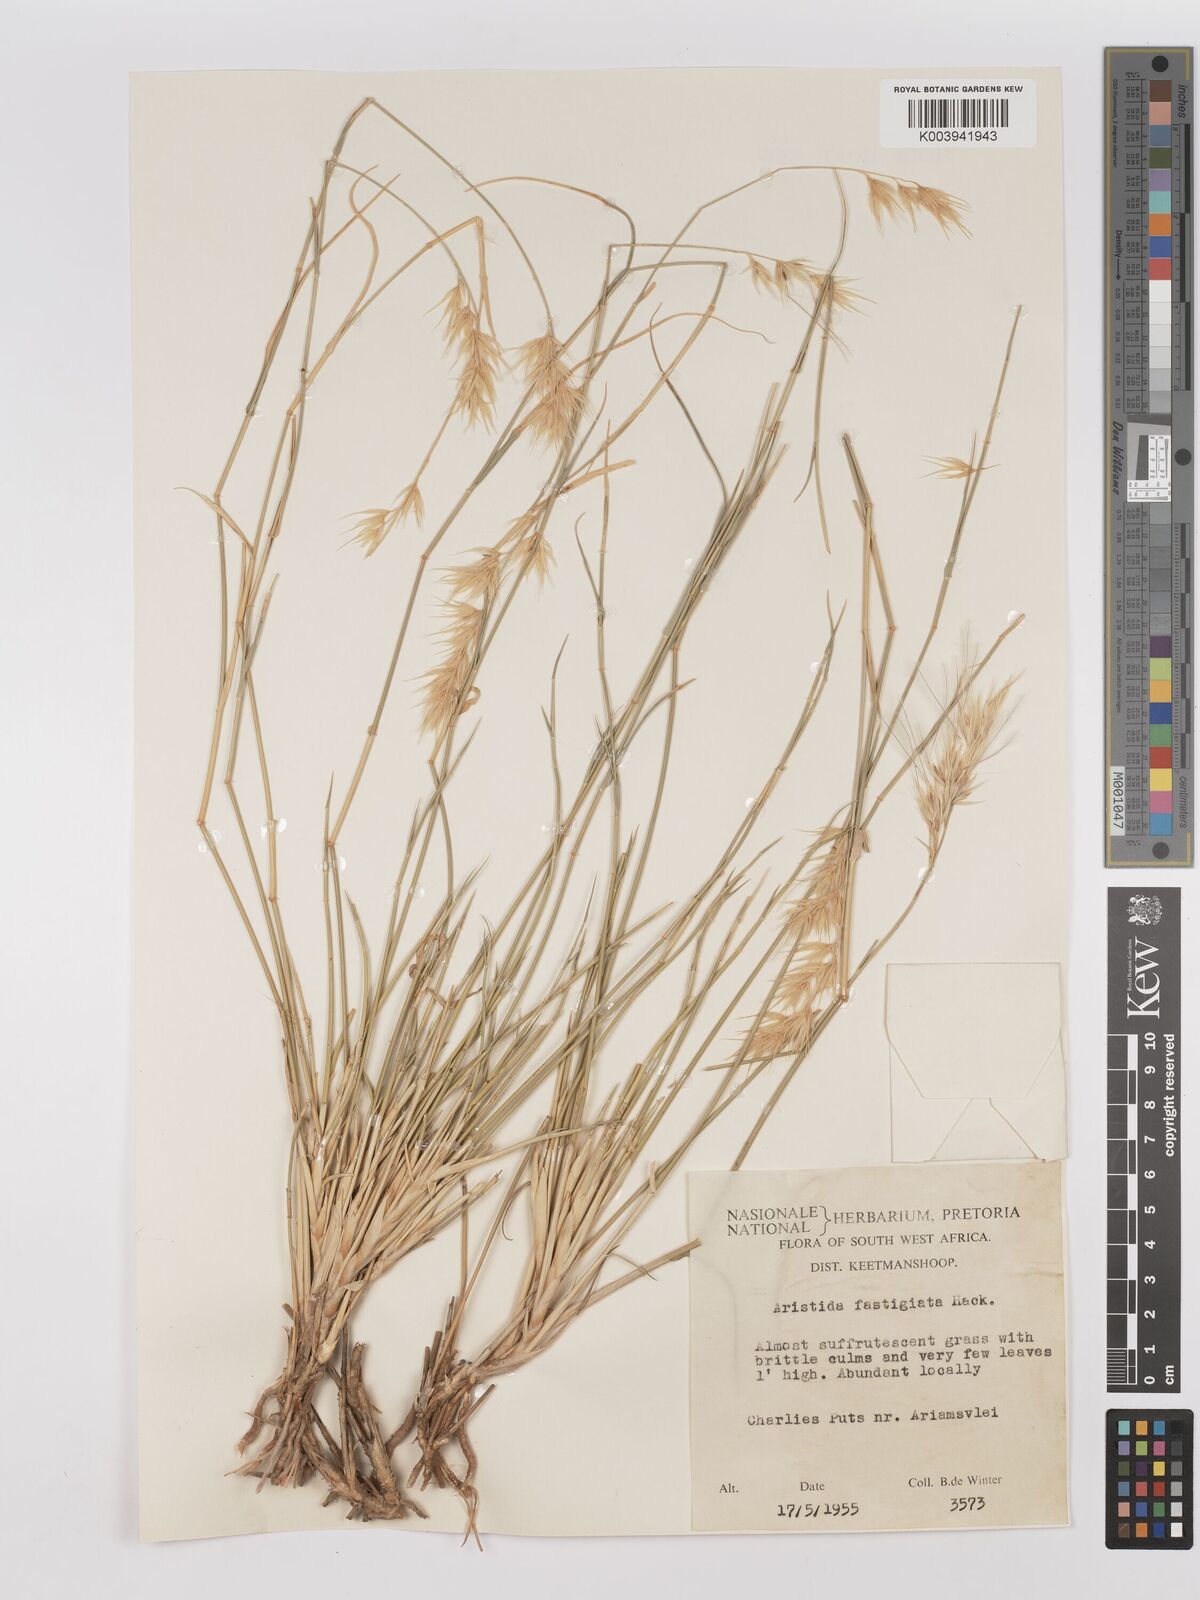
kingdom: Plantae
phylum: Tracheophyta
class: Liliopsida
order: Poales
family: Poaceae
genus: Stipagrostis
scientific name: Stipagrostis fastigiata
